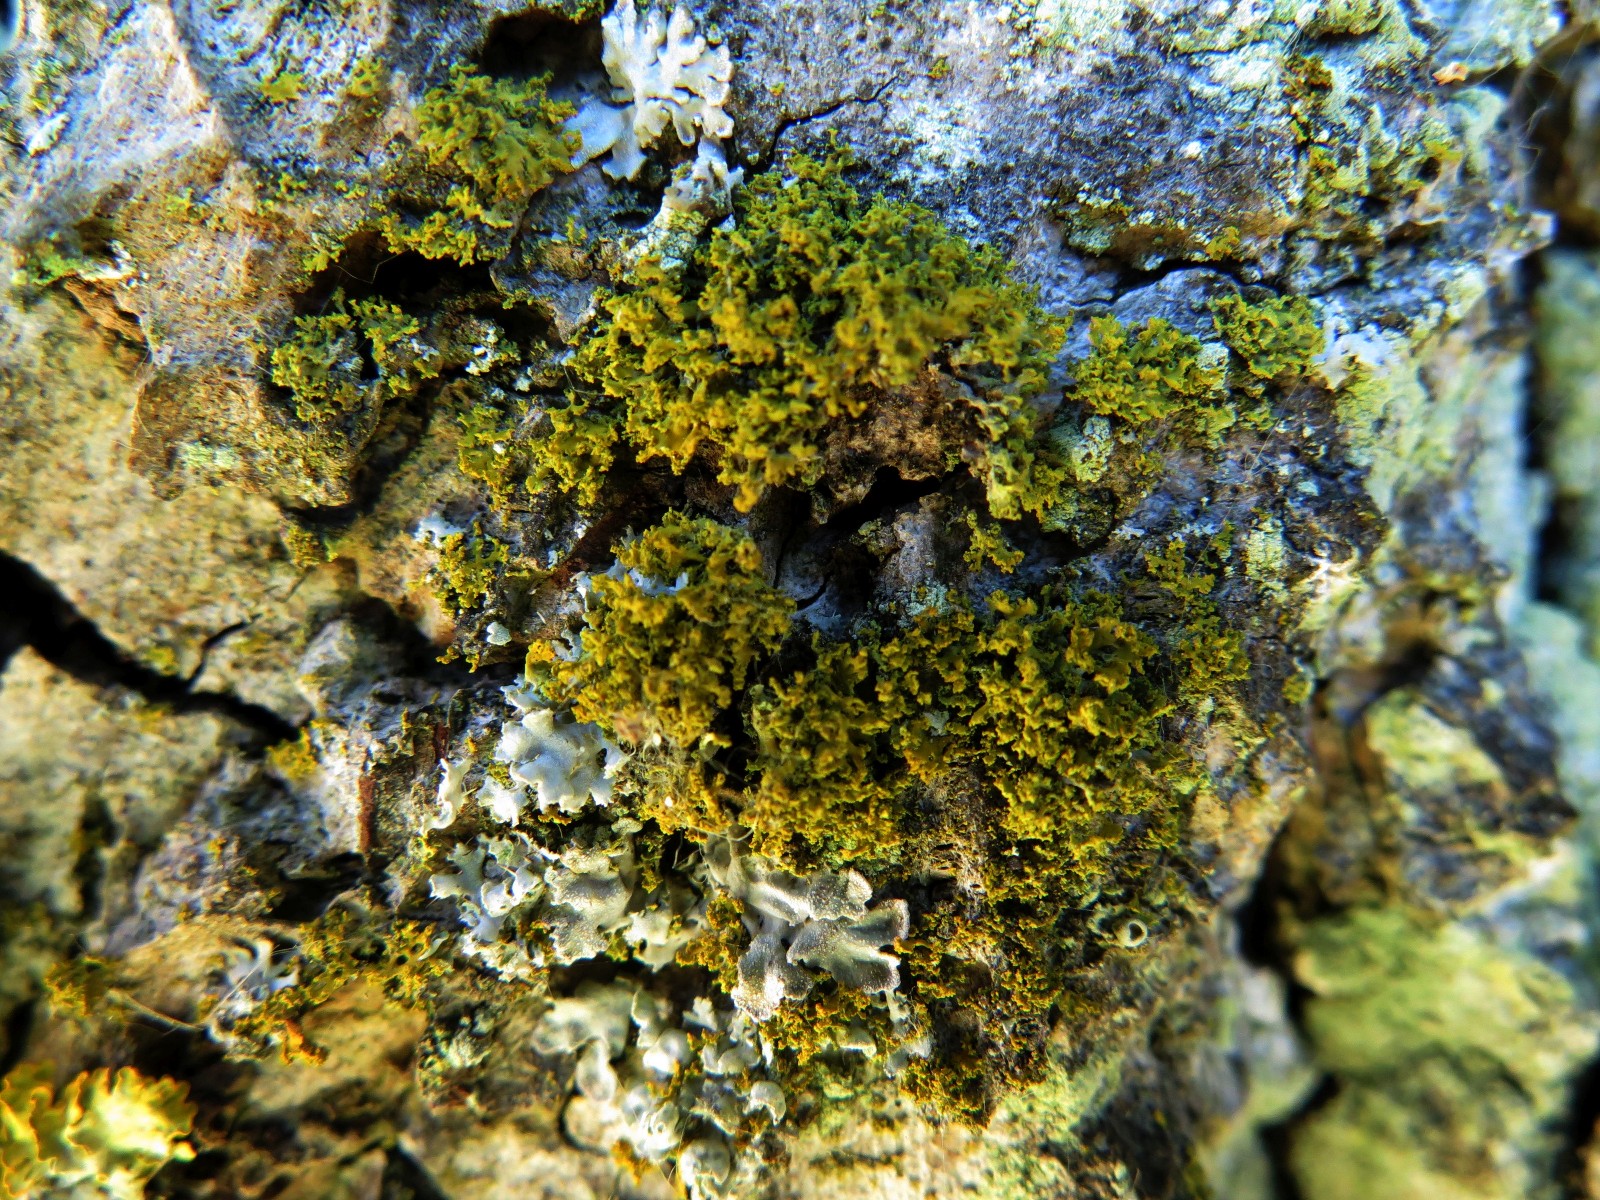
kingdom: Fungi
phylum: Ascomycota
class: Candelariomycetes
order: Candelariales
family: Candelariaceae
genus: Candelaria
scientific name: Candelaria pacifica
